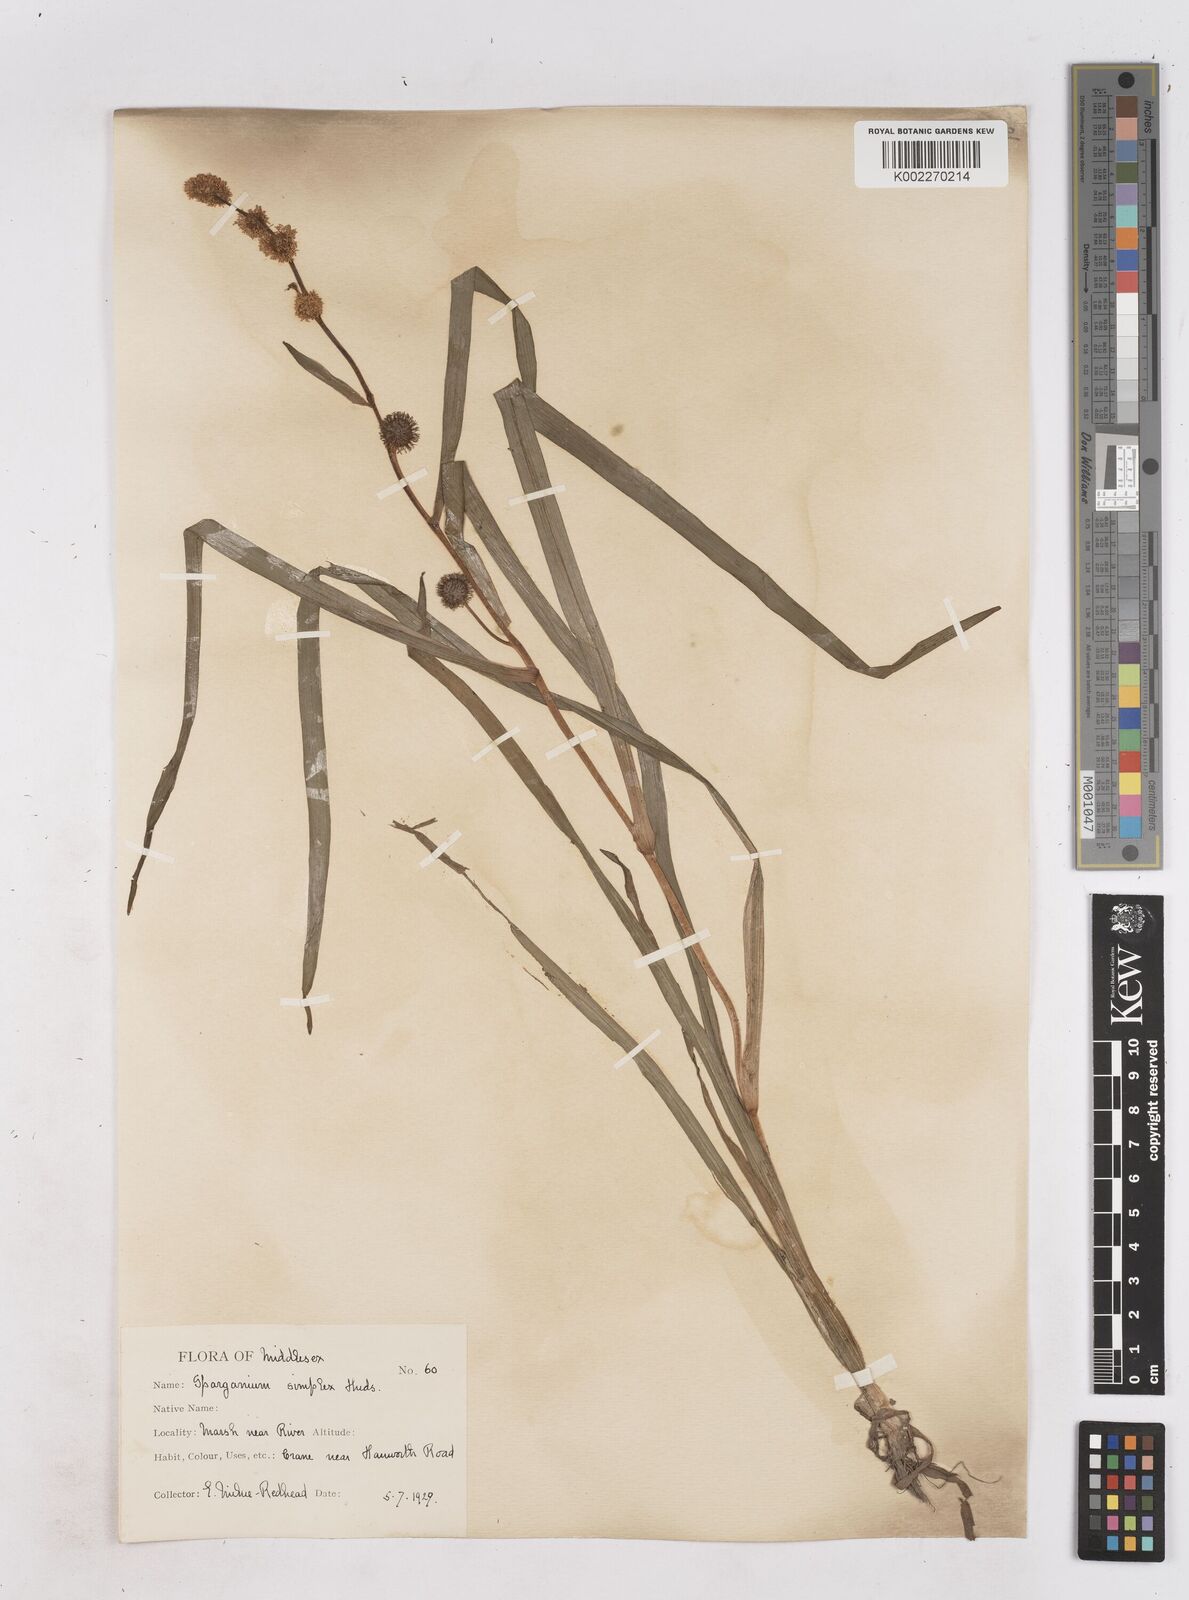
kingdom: Plantae
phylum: Tracheophyta
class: Liliopsida
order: Poales
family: Typhaceae
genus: Sparganium
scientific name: Sparganium emersum
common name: Unbranched bur-reed
